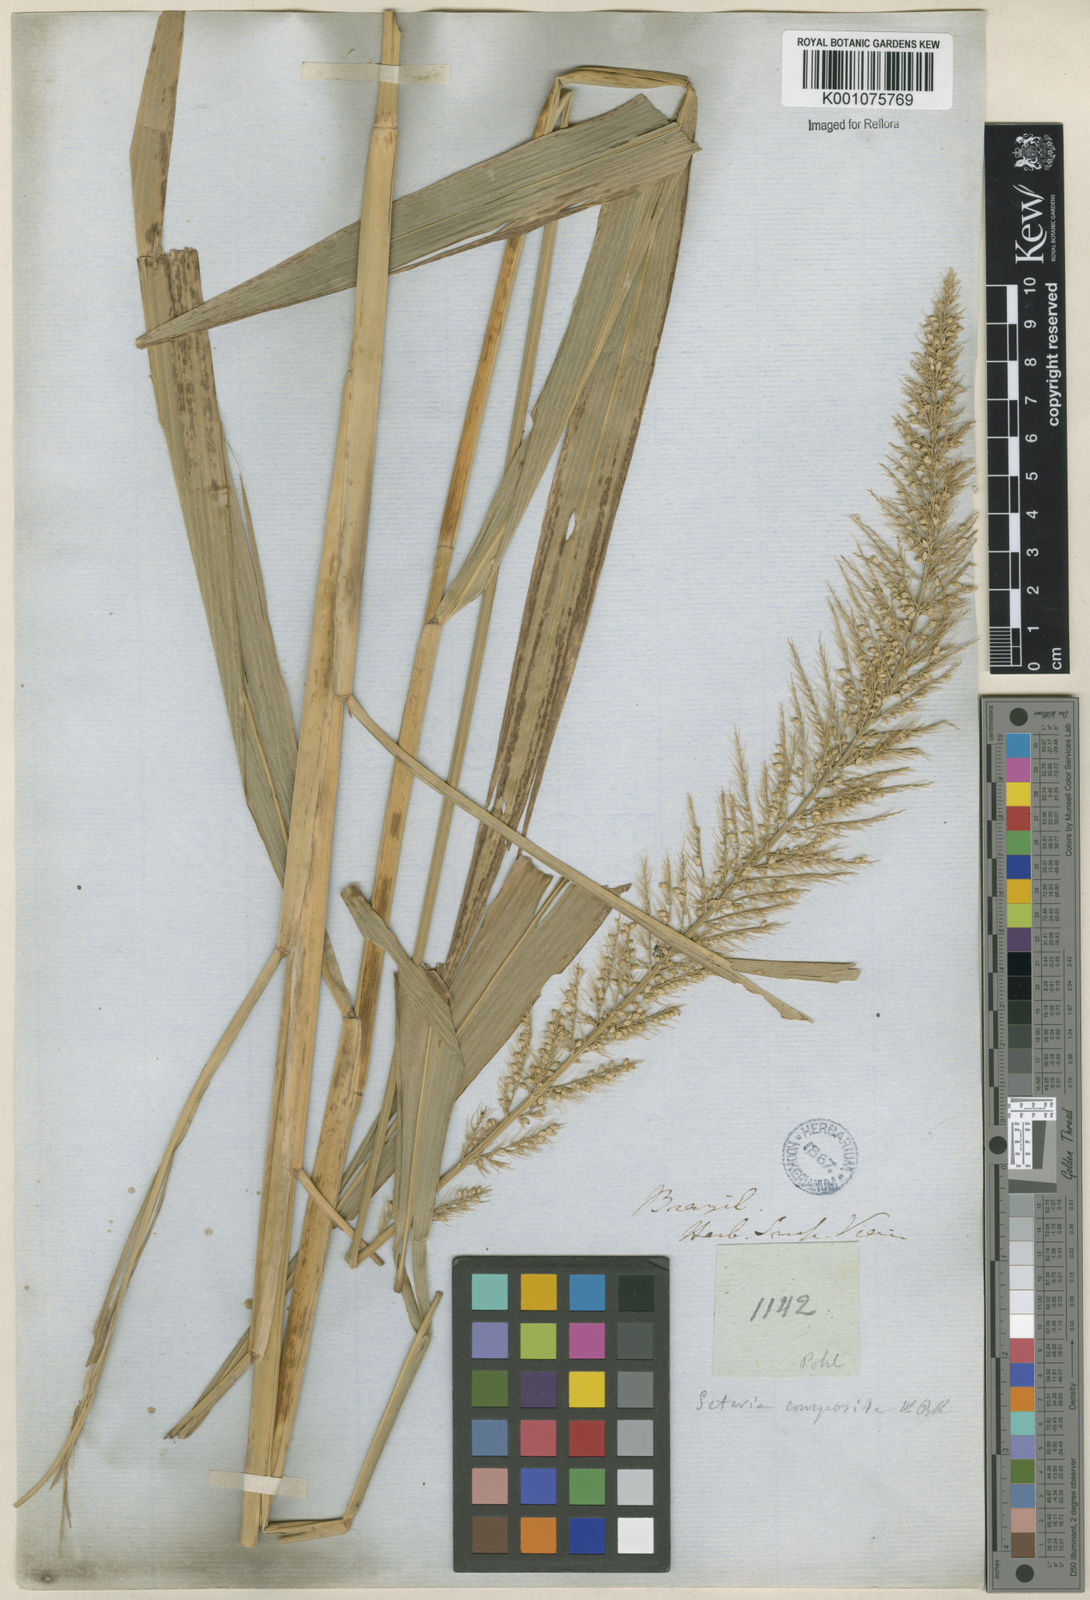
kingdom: Plantae
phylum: Tracheophyta
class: Liliopsida
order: Poales
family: Poaceae
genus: Setaria
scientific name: Setaria vulpiseta
